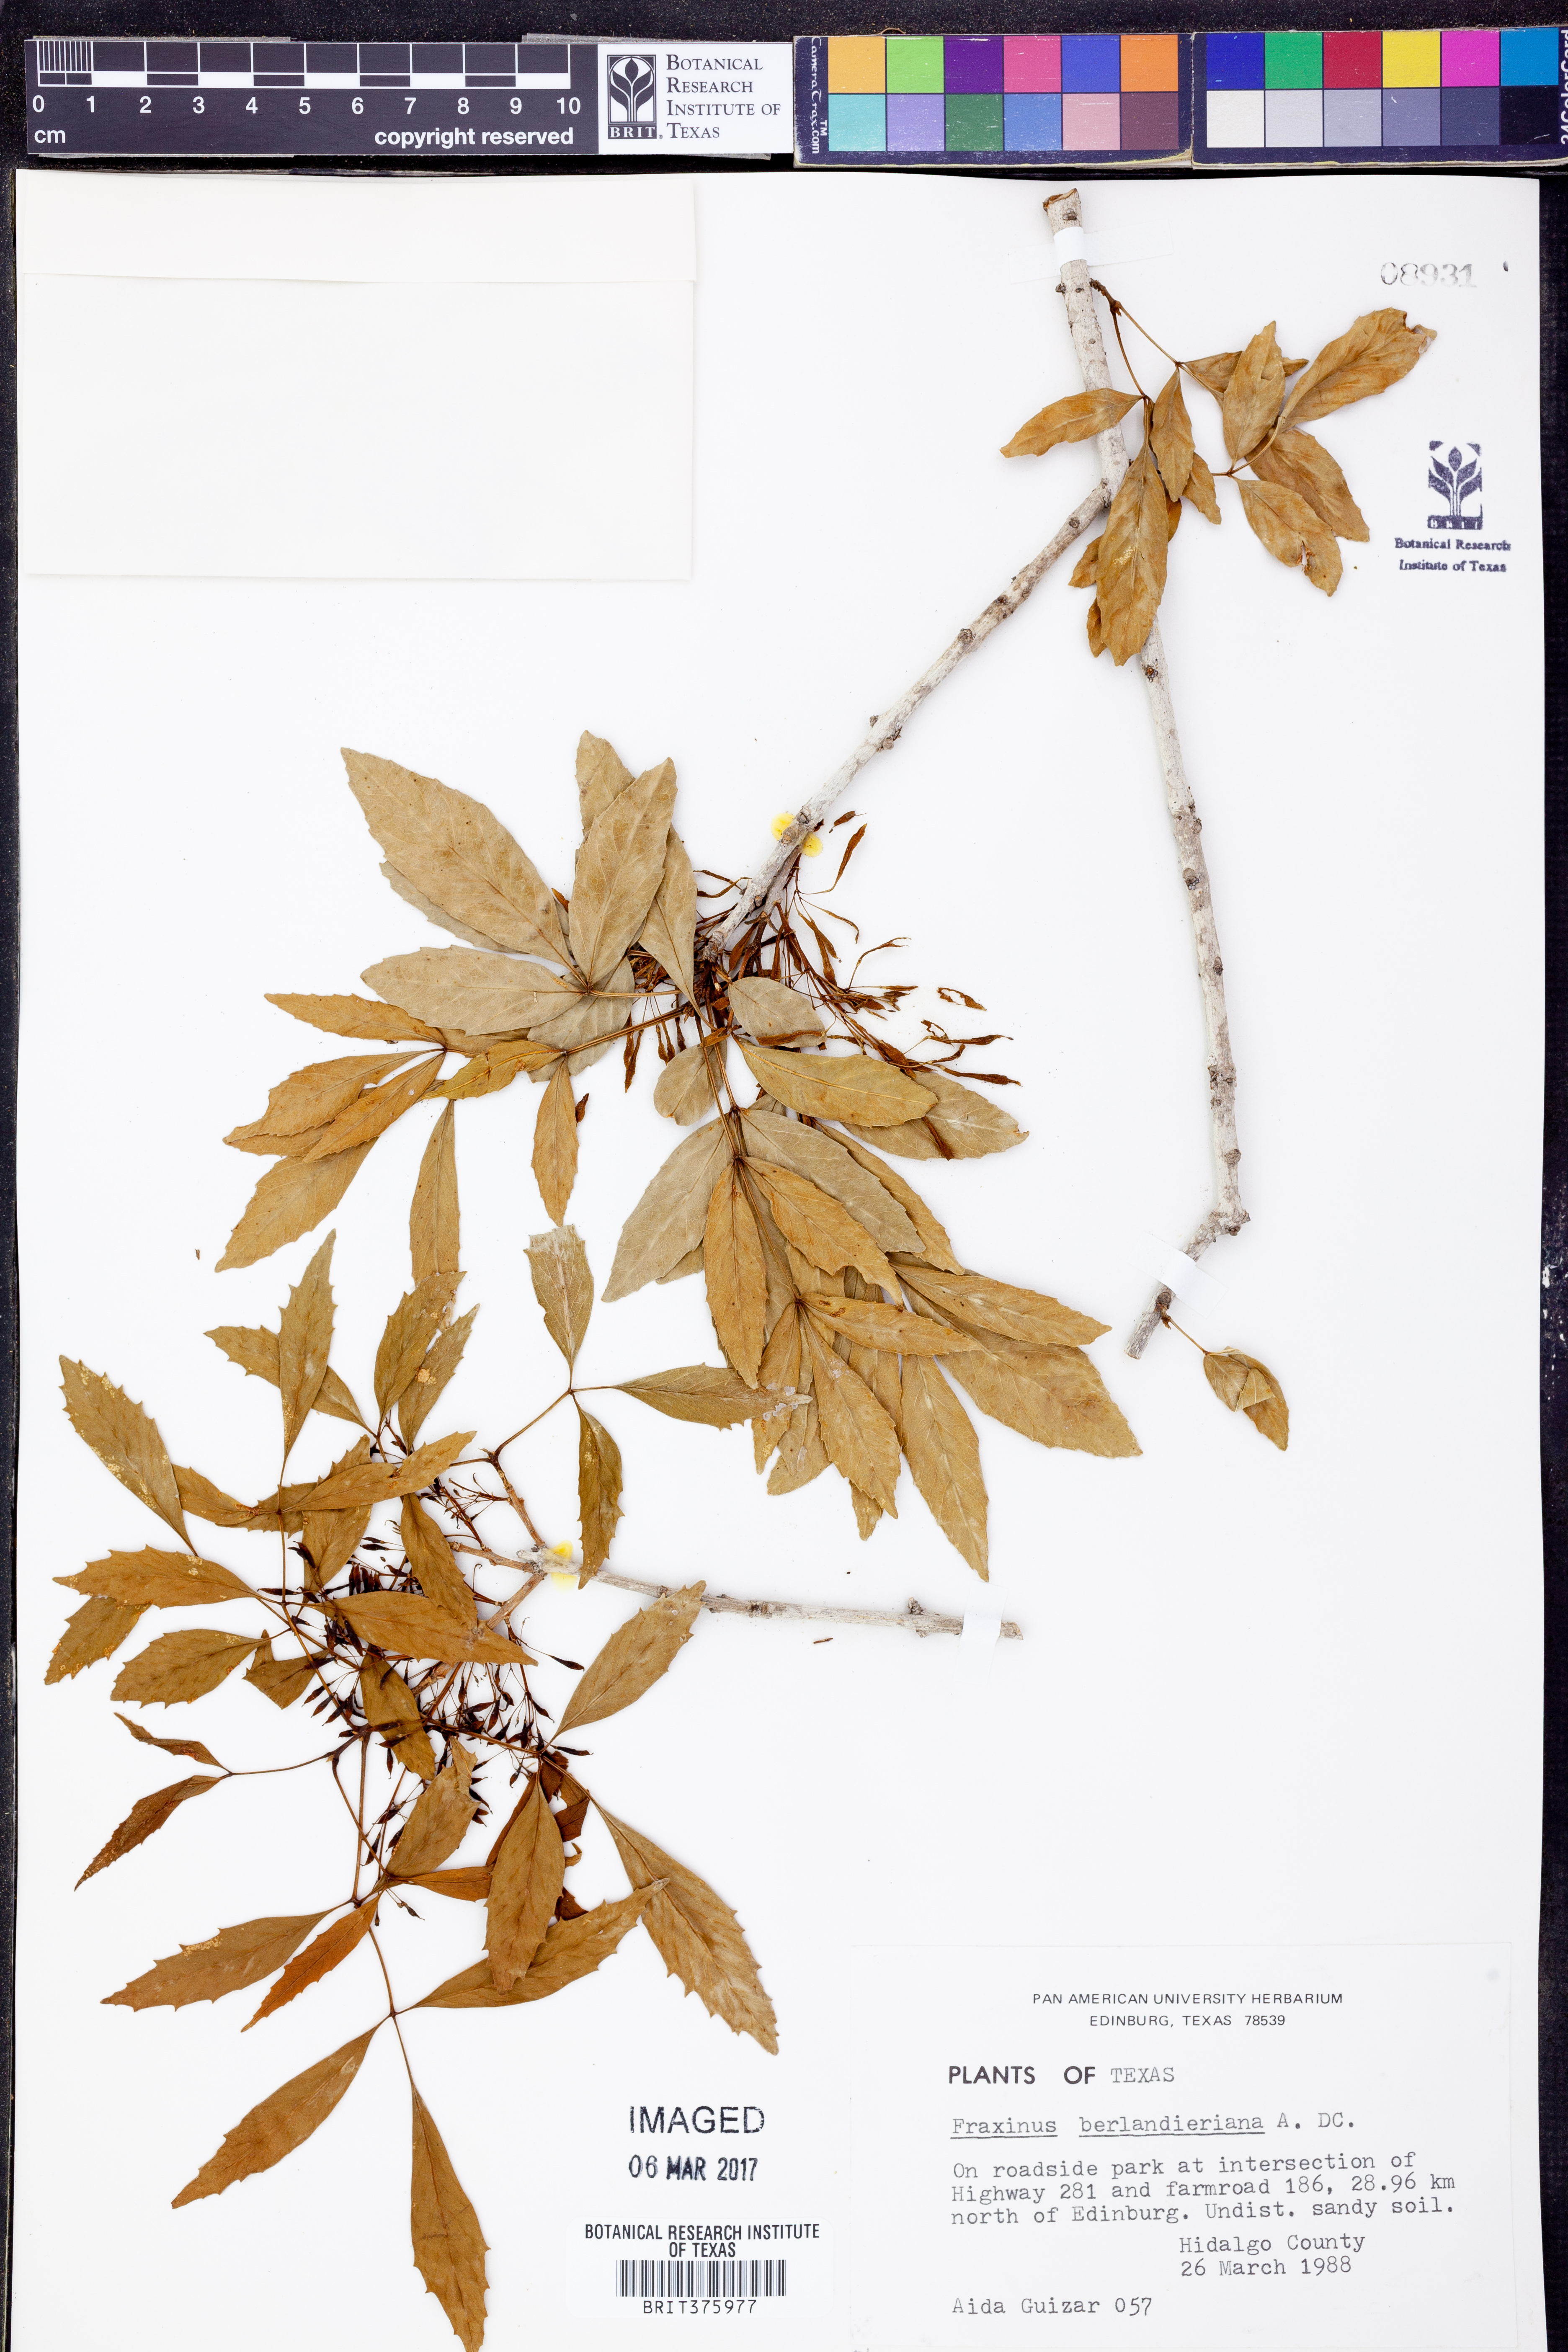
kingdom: Plantae
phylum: Tracheophyta
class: Magnoliopsida
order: Lamiales
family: Oleaceae
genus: Fraxinus
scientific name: Fraxinus berlandieriana
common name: Berlandier ash
